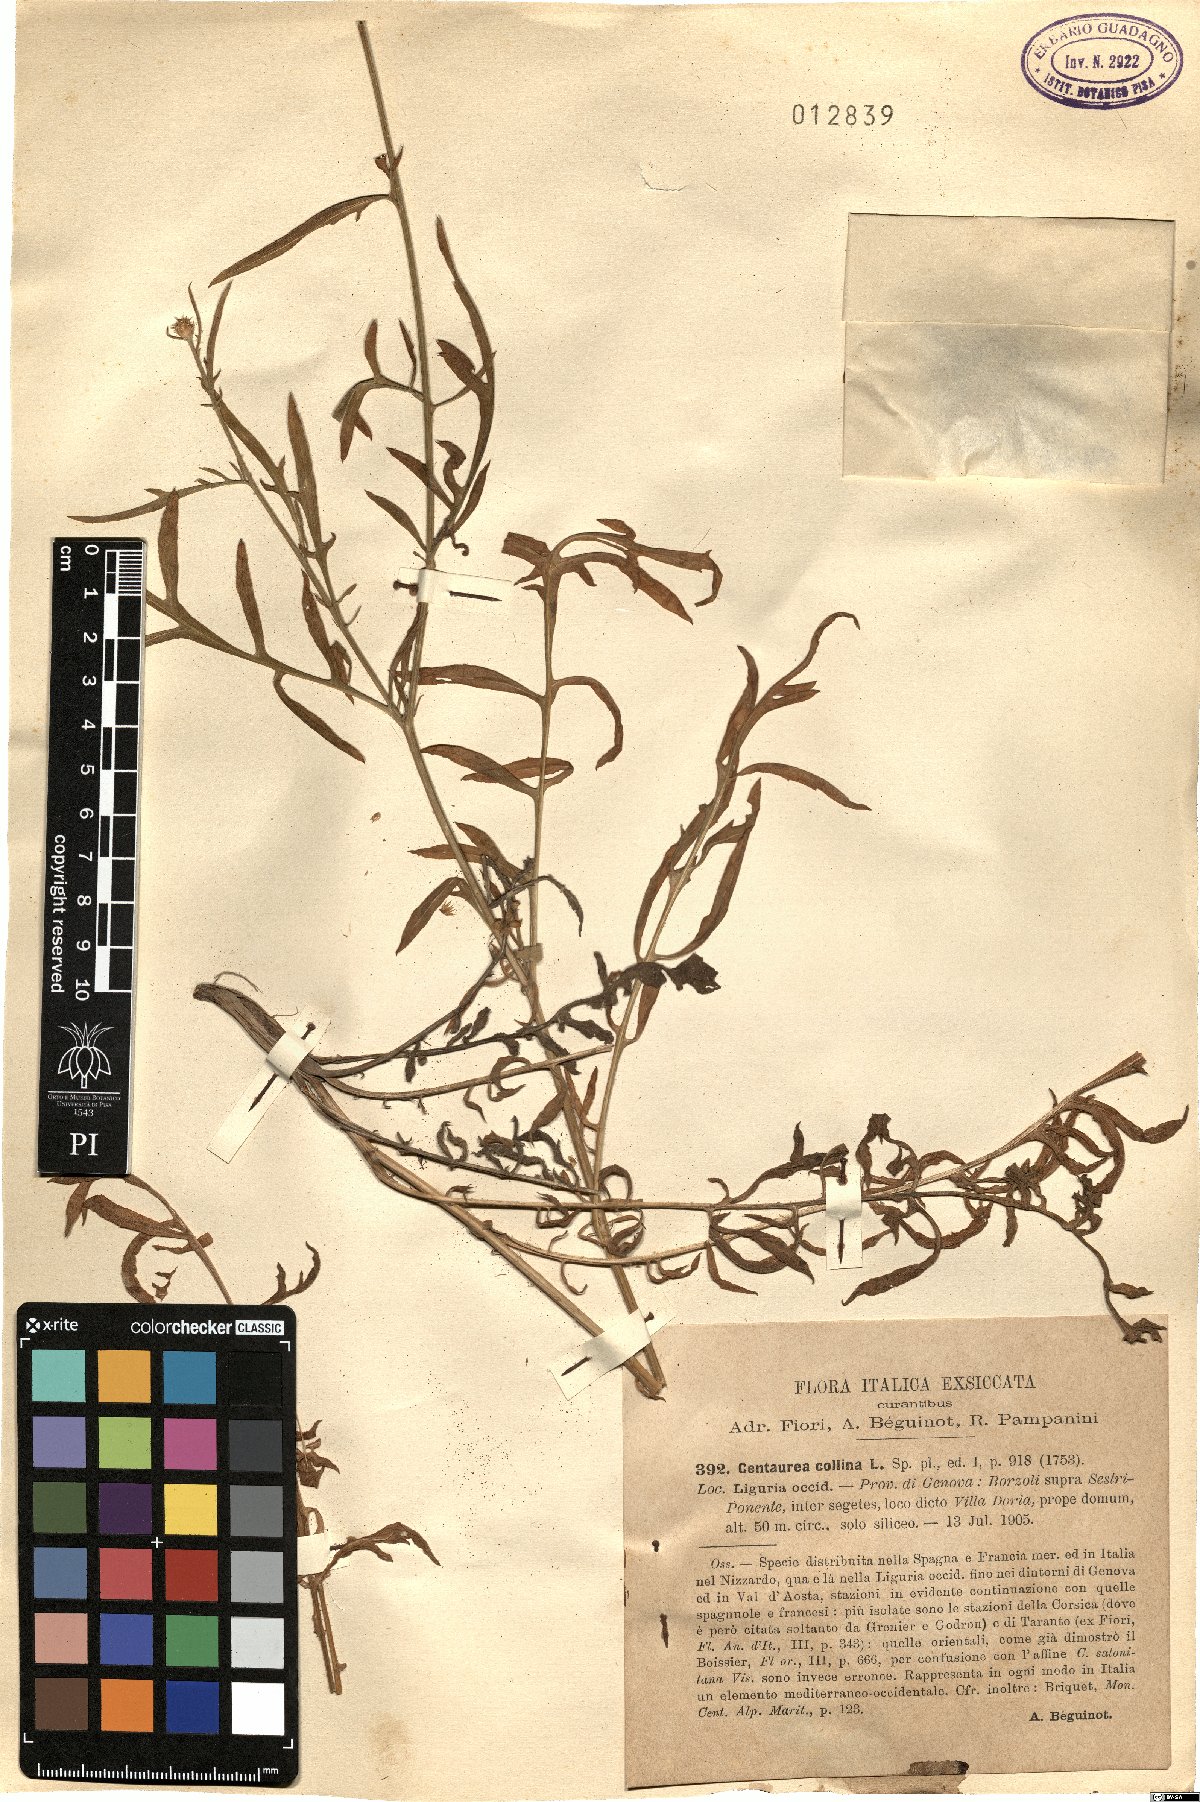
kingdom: Plantae
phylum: Tracheophyta
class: Magnoliopsida
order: Asterales
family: Asteraceae
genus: Centaurea
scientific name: Centaurea collina
